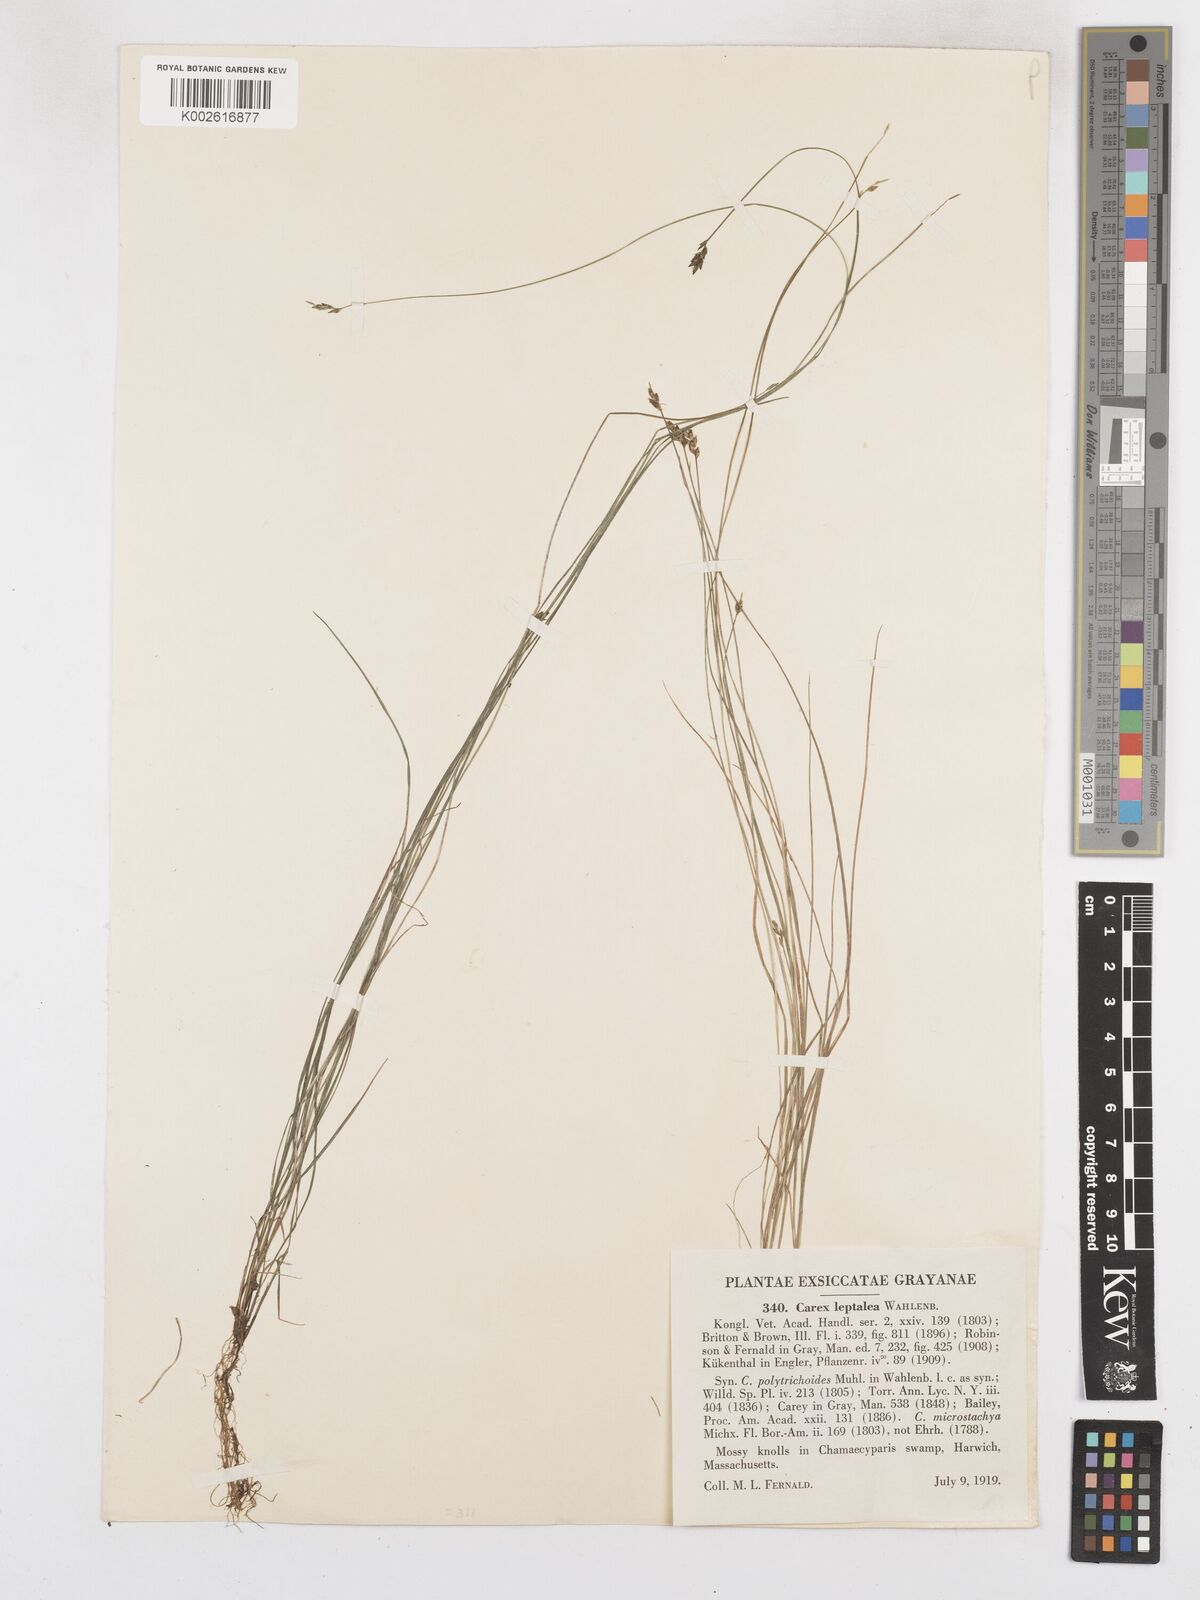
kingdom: Plantae
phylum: Tracheophyta
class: Liliopsida
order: Poales
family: Cyperaceae
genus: Carex
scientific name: Carex leptalea
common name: Bristly-stalked sedge
